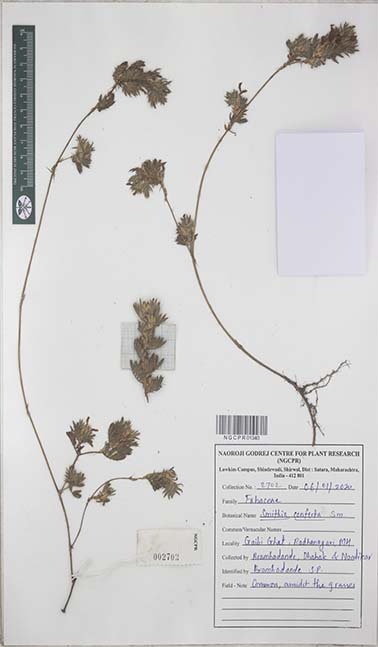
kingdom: Plantae
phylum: Tracheophyta
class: Magnoliopsida
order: Fabales
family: Fabaceae
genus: Smithia
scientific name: Smithia conferta
